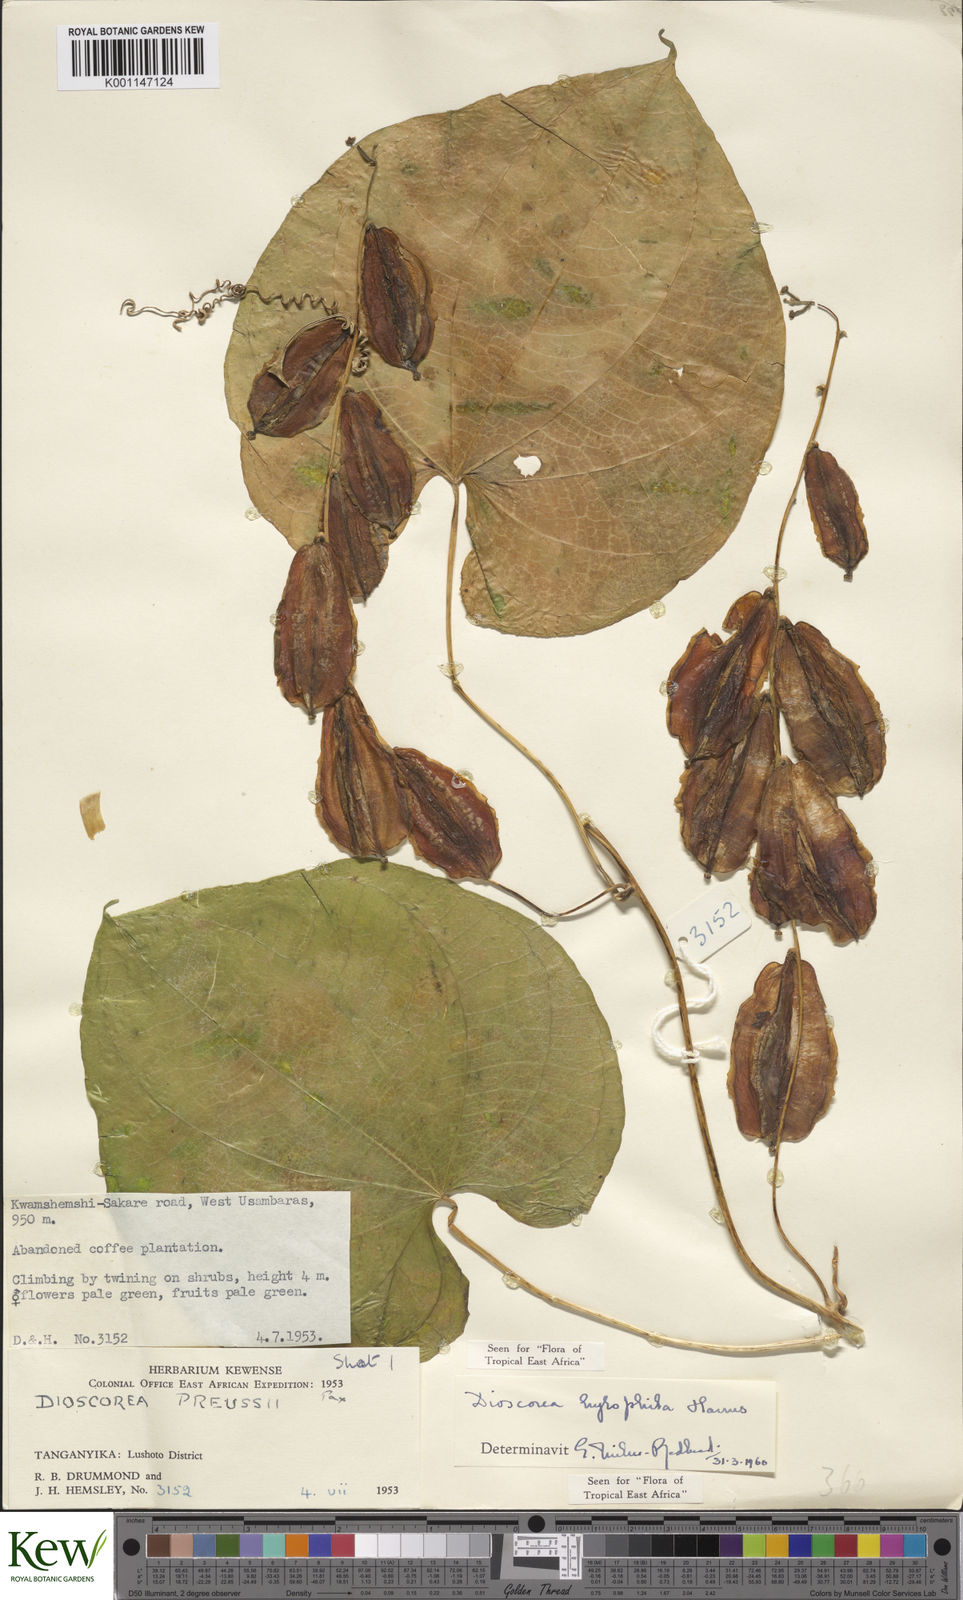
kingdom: Plantae
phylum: Tracheophyta
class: Liliopsida
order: Dioscoreales
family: Dioscoreaceae
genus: Dioscorea
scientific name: Dioscorea
